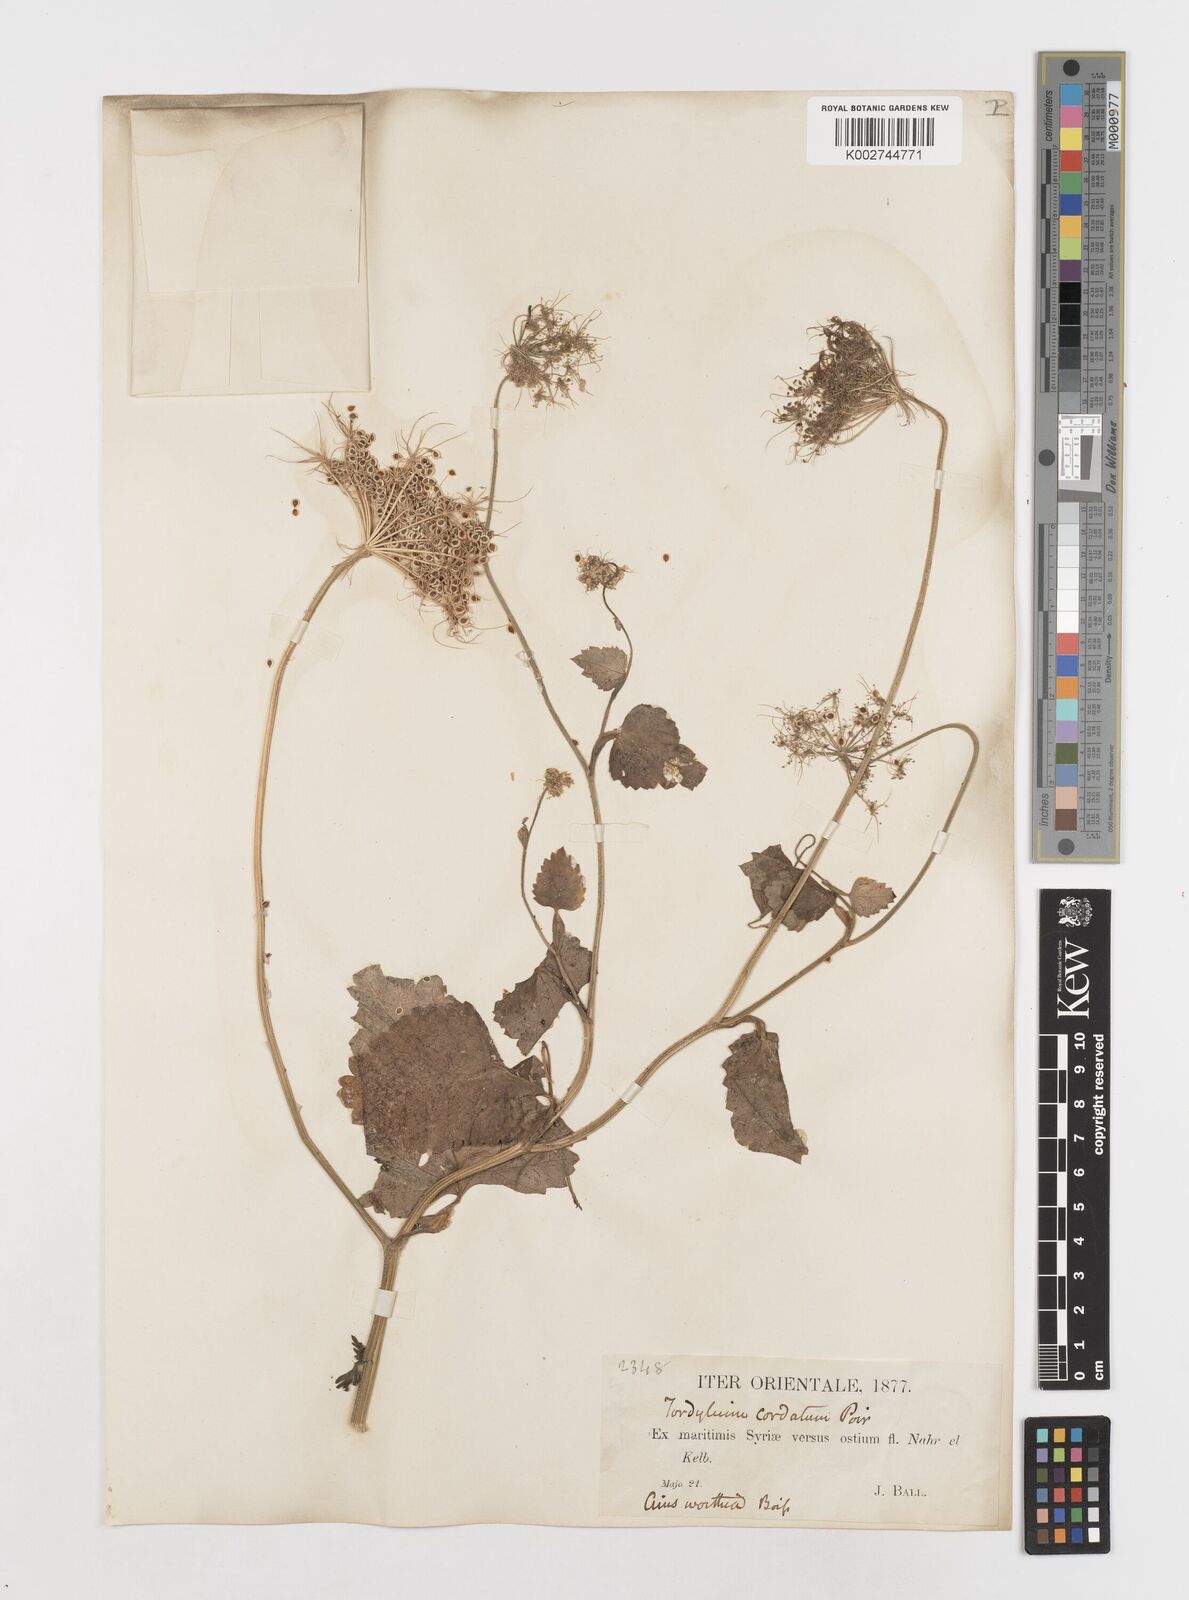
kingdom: Plantae
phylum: Tracheophyta
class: Magnoliopsida
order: Apiales
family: Apiaceae
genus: Ainsworthia
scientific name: Ainsworthia cordata
